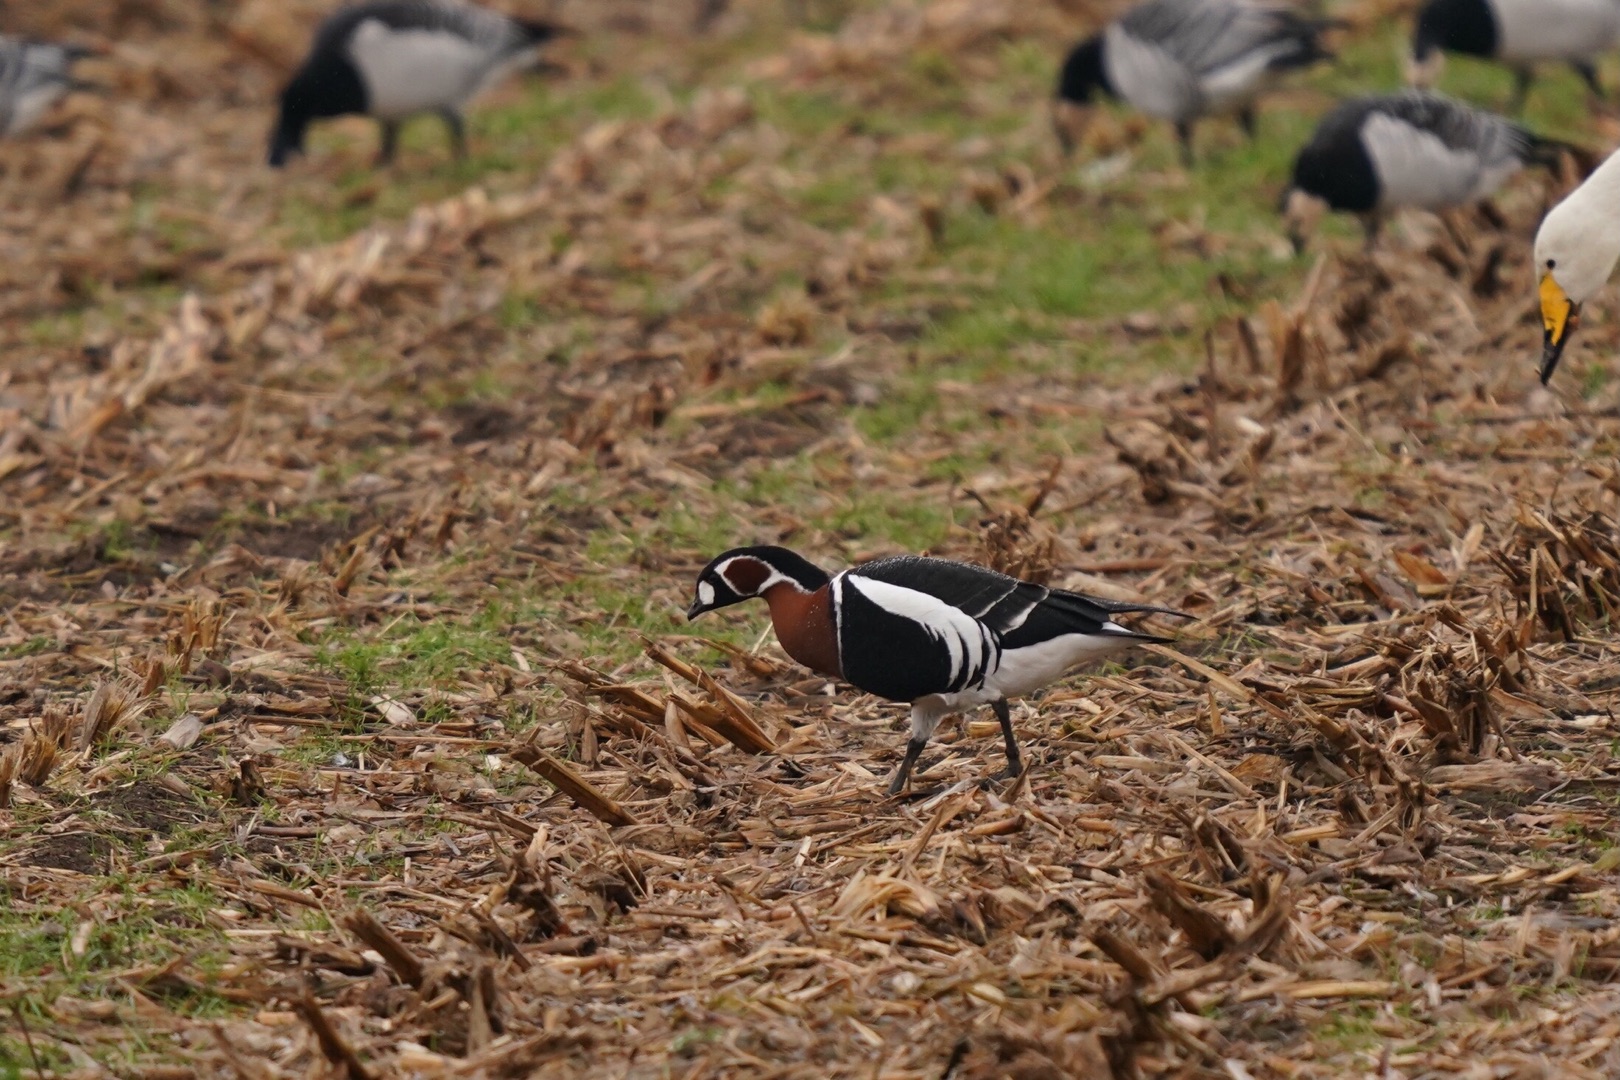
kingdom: Animalia
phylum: Chordata
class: Aves
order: Anseriformes
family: Anatidae
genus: Branta
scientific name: Branta ruficollis
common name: Rødhalset gås
